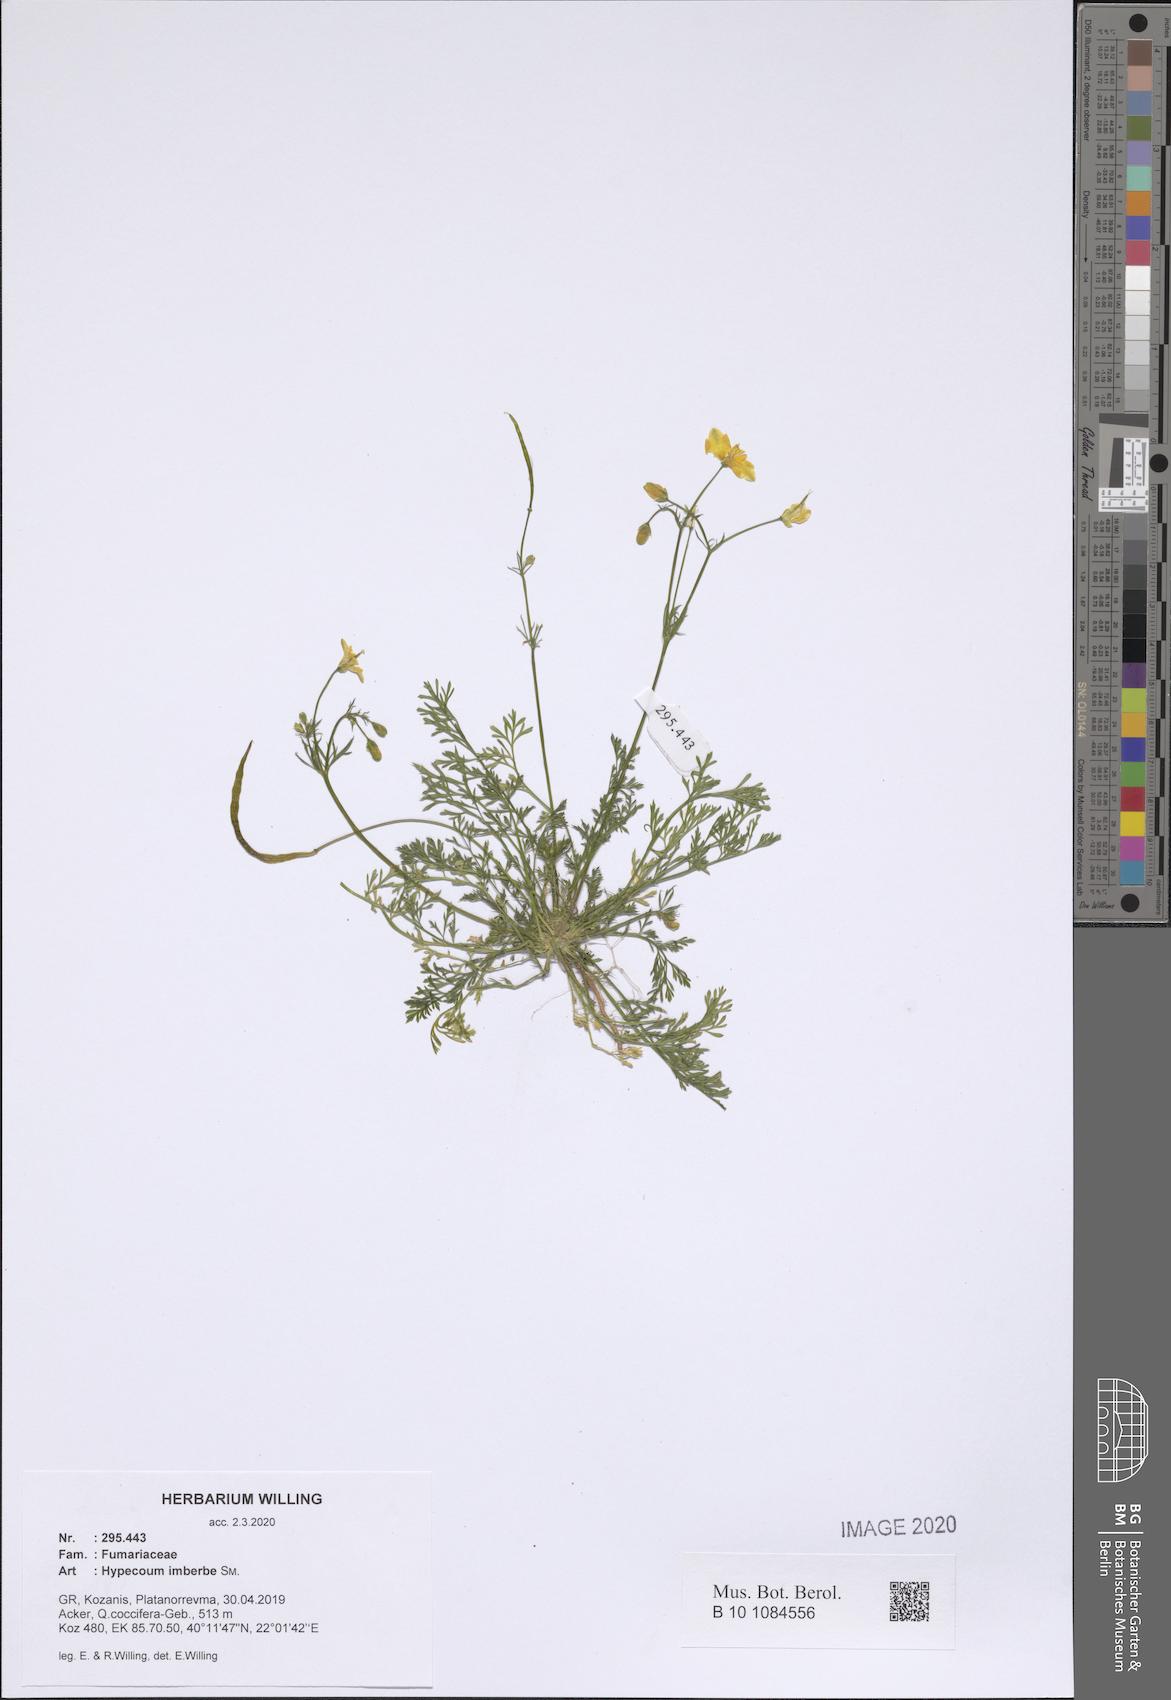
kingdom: Plantae
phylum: Tracheophyta
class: Magnoliopsida
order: Ranunculales
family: Papaveraceae
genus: Hypecoum
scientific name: Hypecoum imberbe
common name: Sicklefruit hypecoum
